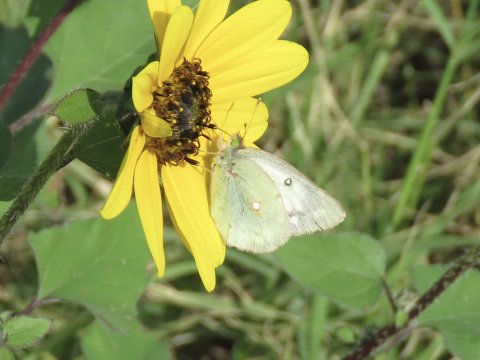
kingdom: Animalia
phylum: Arthropoda
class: Insecta
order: Lepidoptera
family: Pieridae
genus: Colias
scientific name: Colias eurytheme
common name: Orange Sulphur
